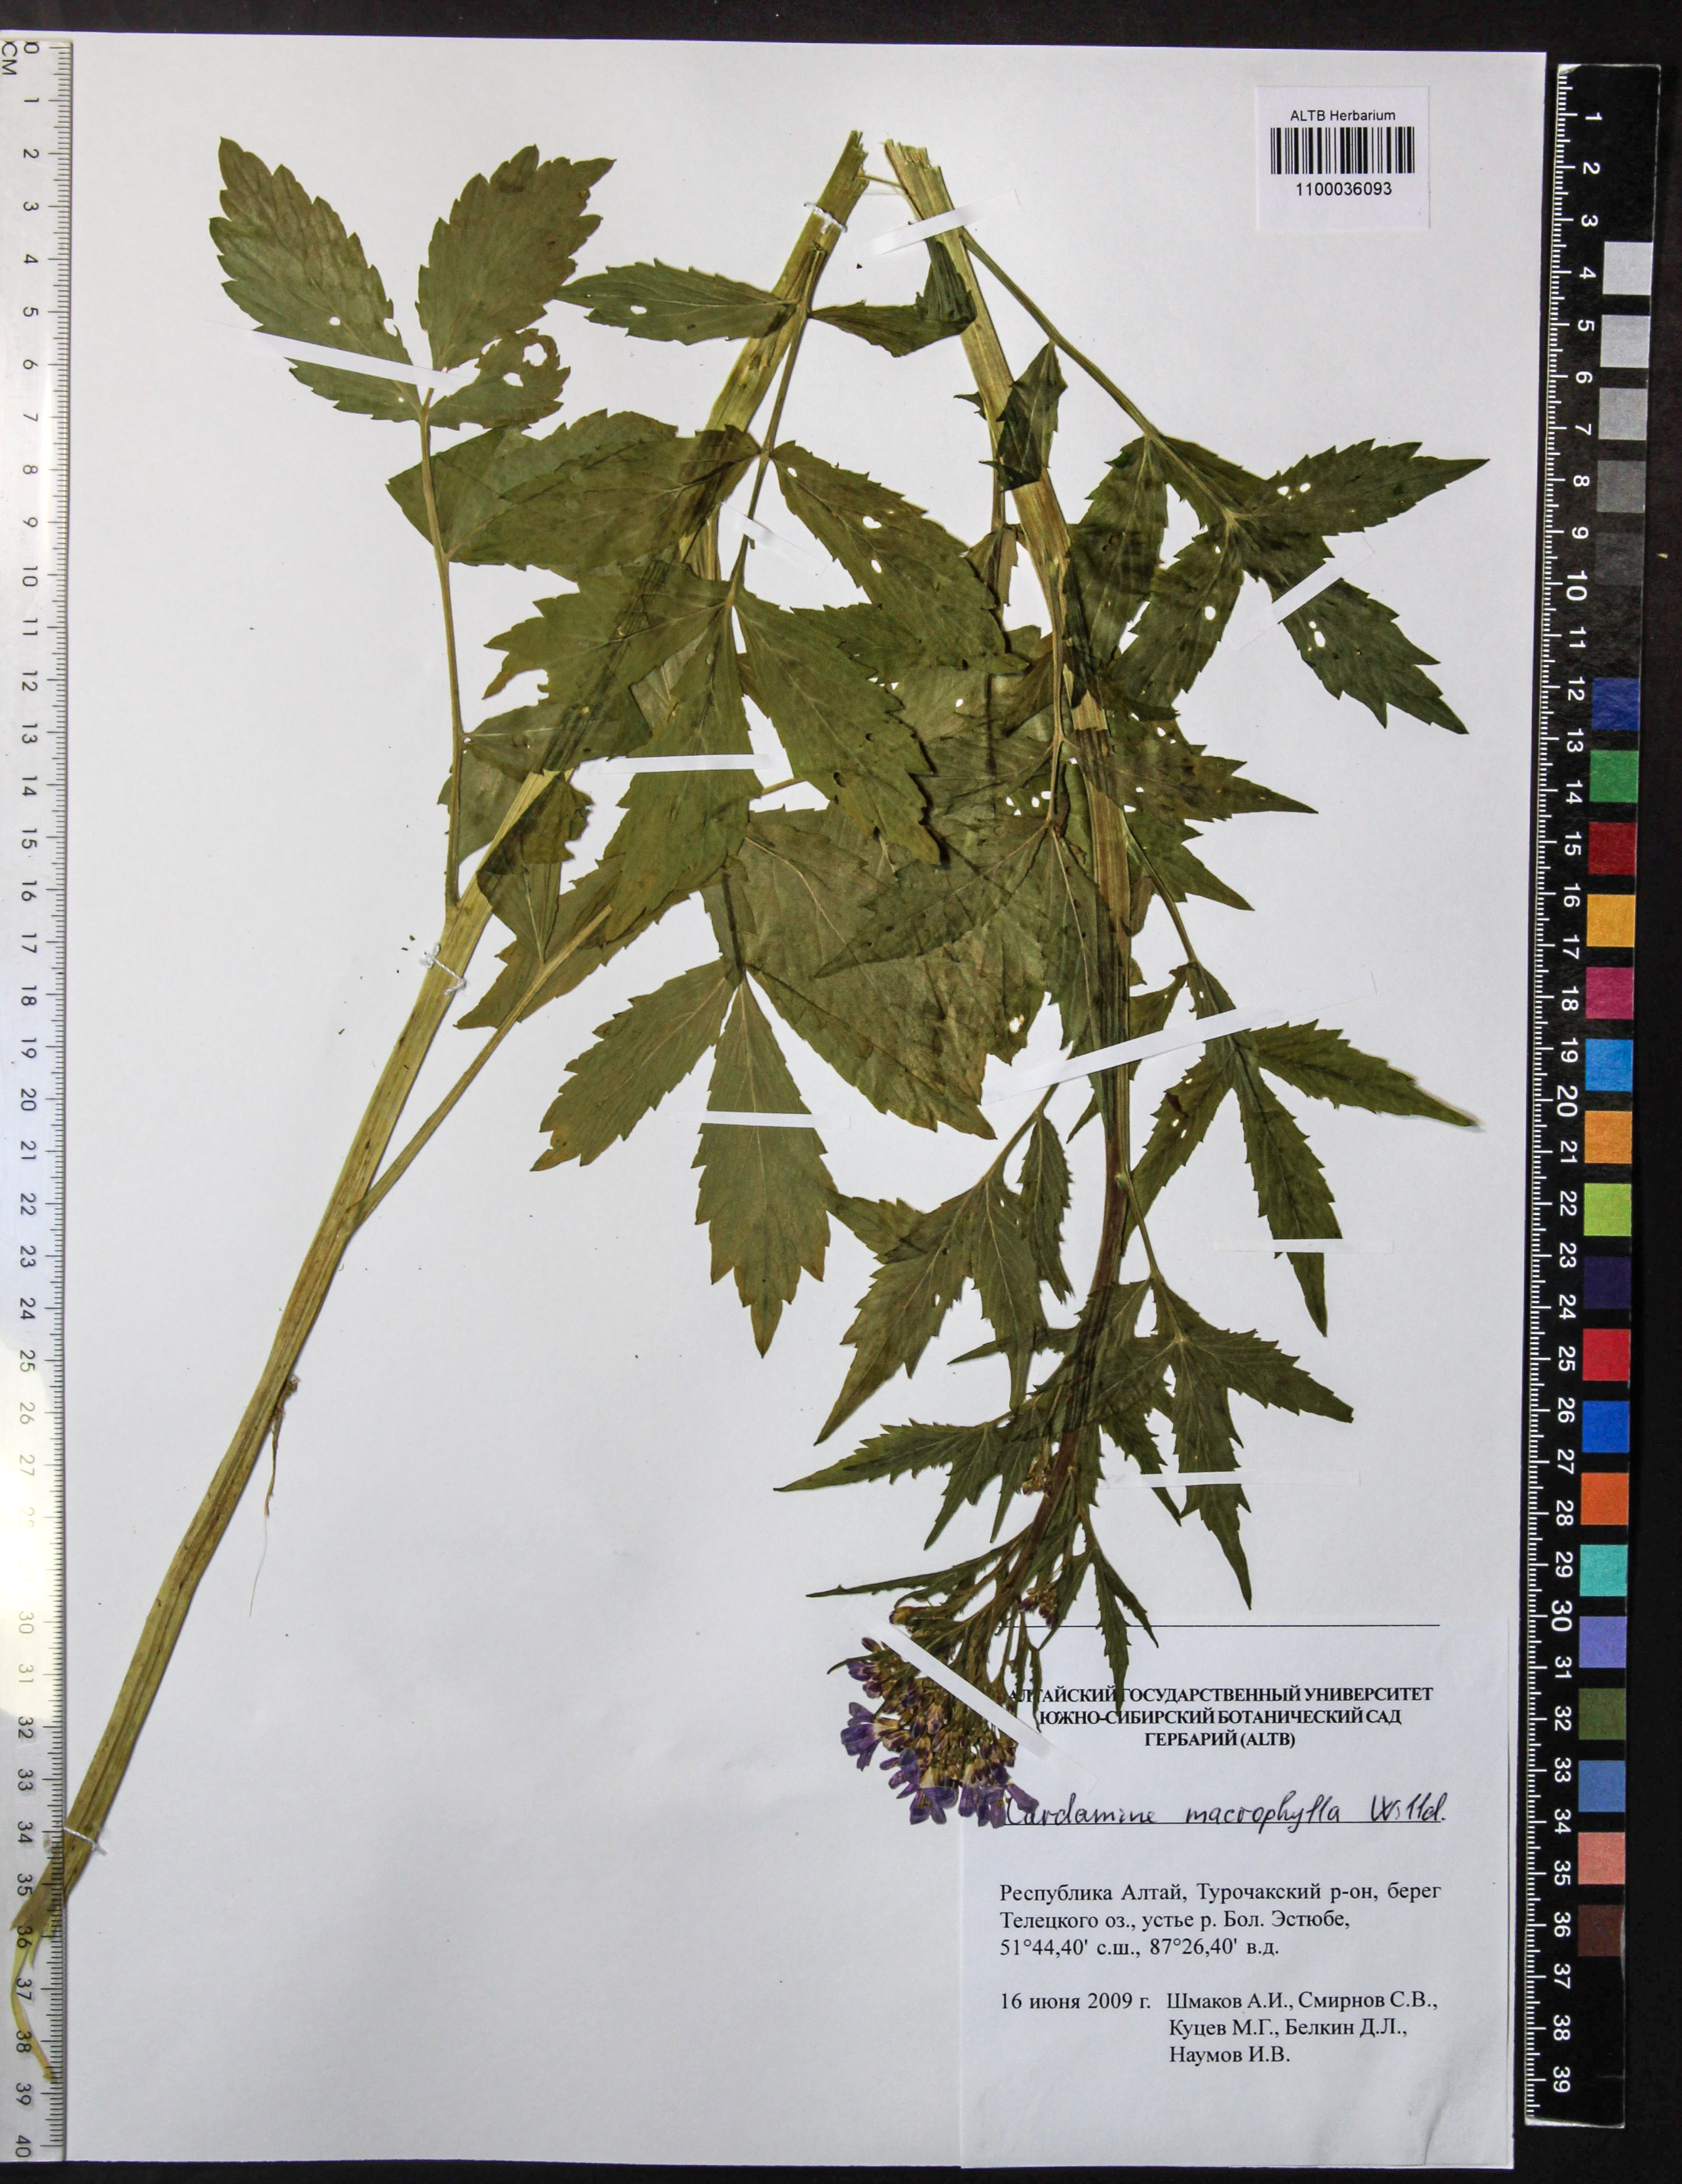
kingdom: Plantae
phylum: Tracheophyta
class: Magnoliopsida
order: Brassicales
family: Brassicaceae
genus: Cardamine
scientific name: Cardamine macrophylla
